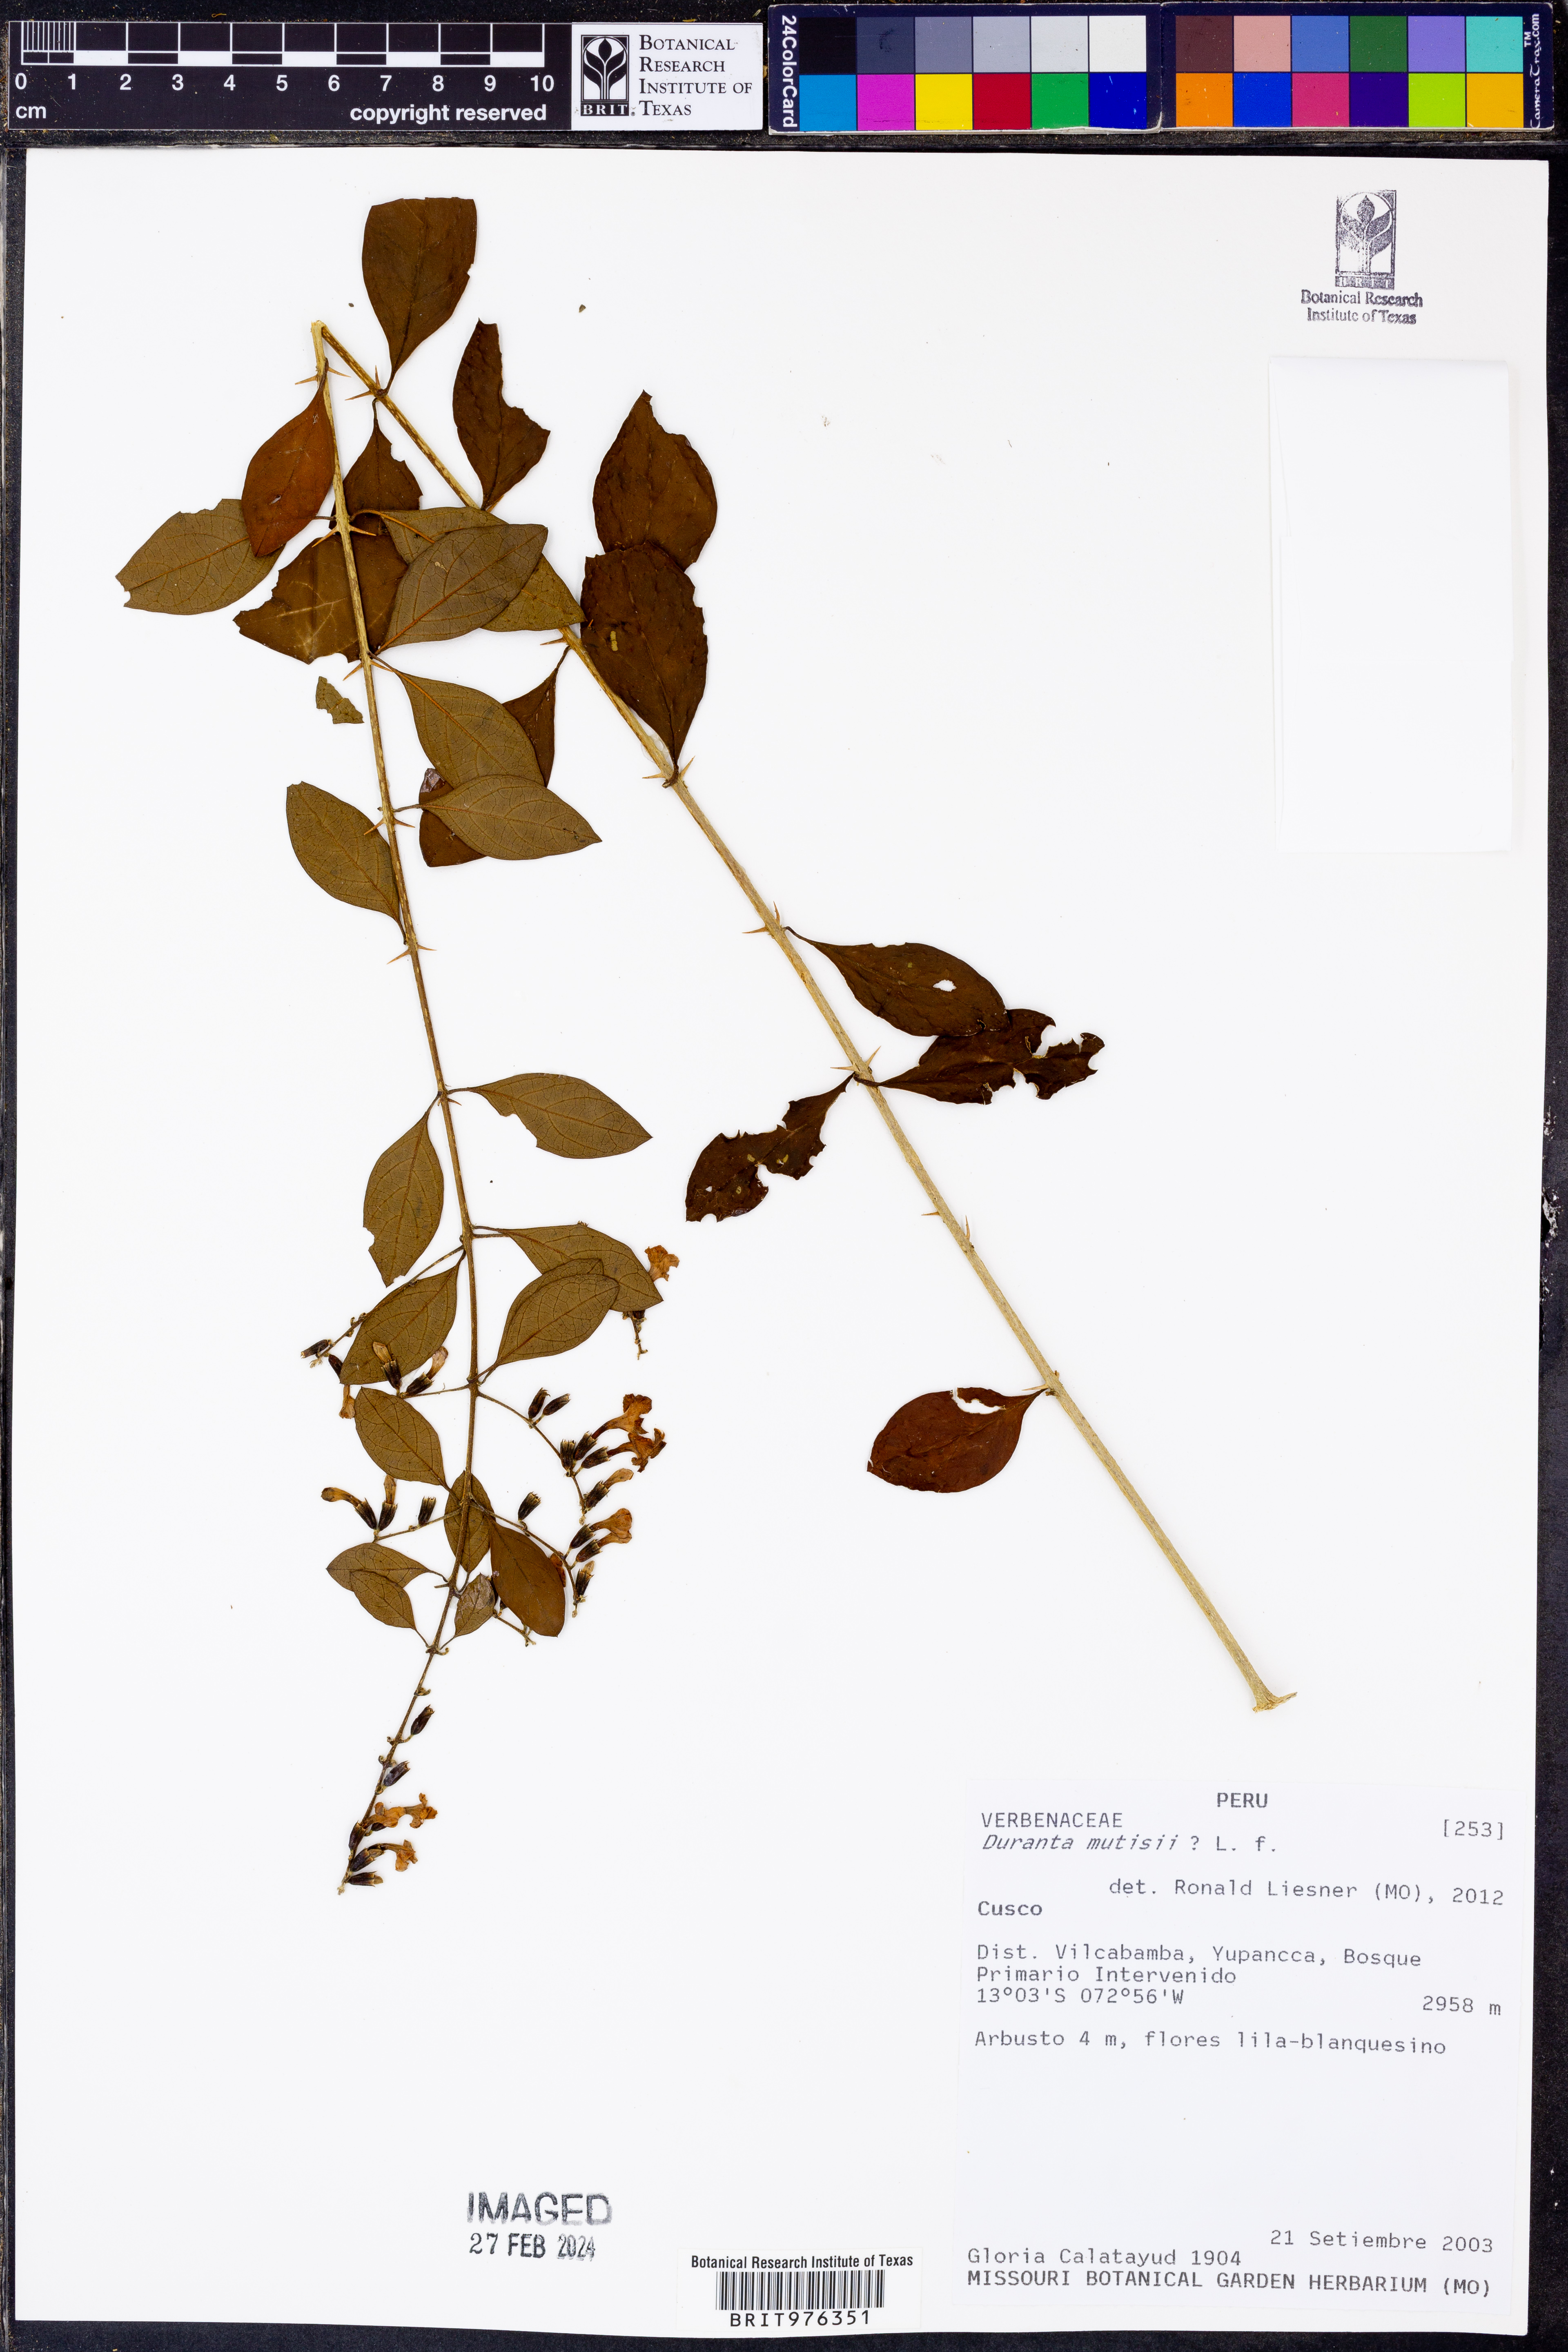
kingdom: Plantae
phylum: Tracheophyta
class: Magnoliopsida
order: Lamiales
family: Verbenaceae
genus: Duranta
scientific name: Duranta
